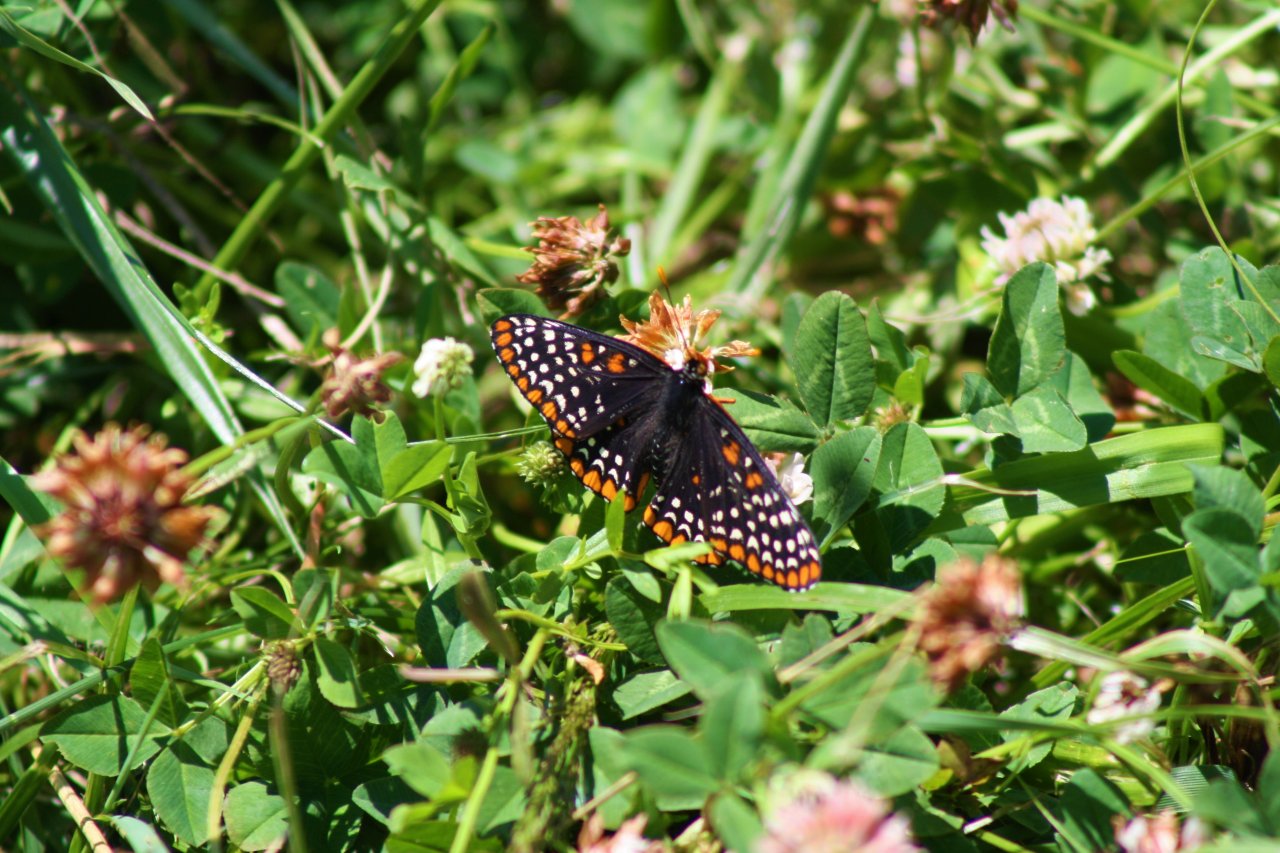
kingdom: Animalia
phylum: Arthropoda
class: Insecta
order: Lepidoptera
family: Nymphalidae
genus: Euphydryas
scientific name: Euphydryas phaeton
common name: Baltimore Checkerspot
